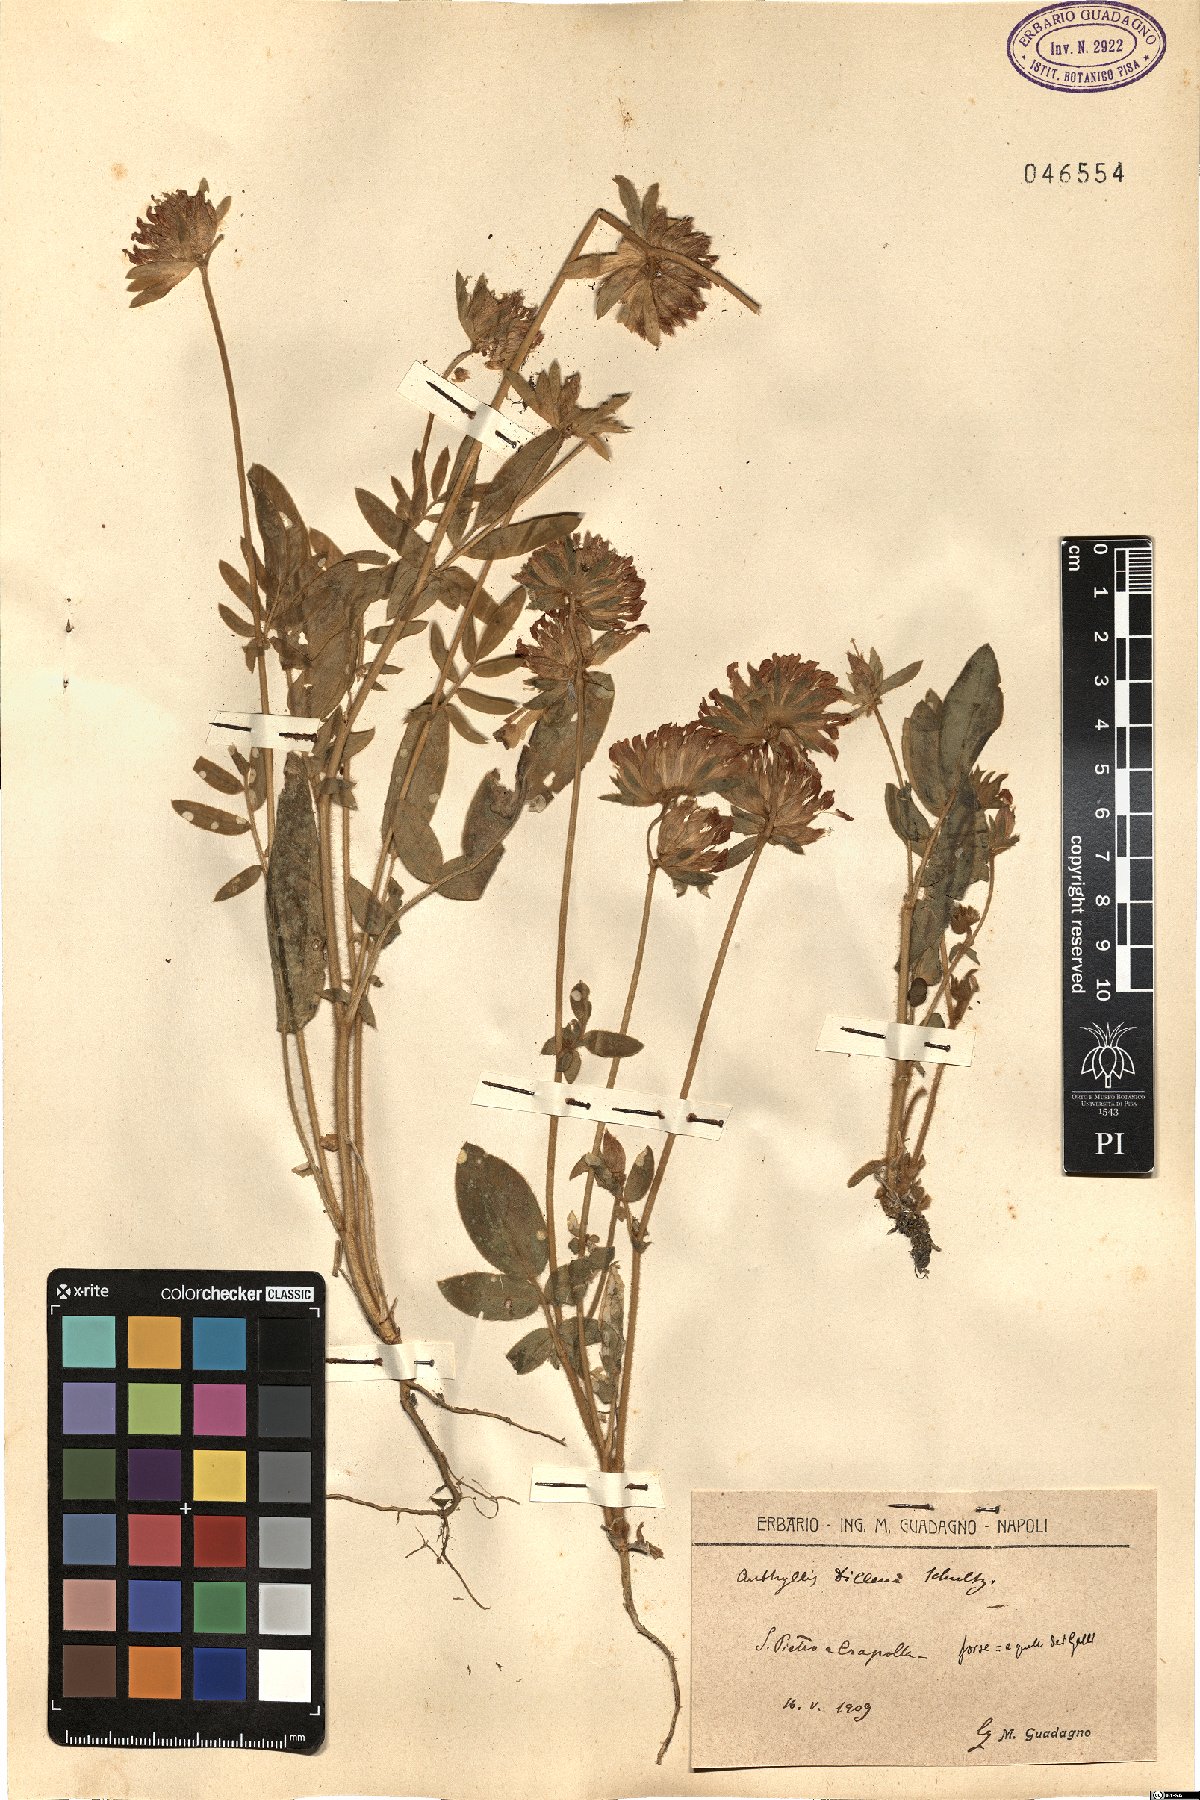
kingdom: Plantae
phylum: Tracheophyta
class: Magnoliopsida
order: Fabales
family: Fabaceae
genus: Anthyllis
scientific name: Anthyllis vulneraria
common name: Kidney vetch
